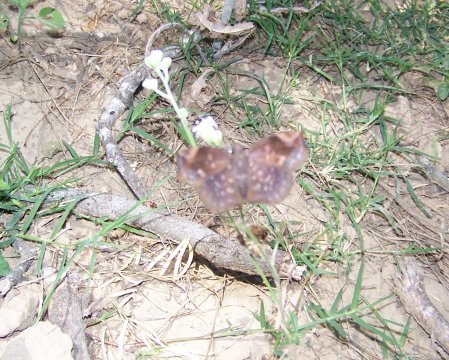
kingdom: Animalia
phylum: Arthropoda
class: Insecta
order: Lepidoptera
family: Hesperiidae
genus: Achlyodes
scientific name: Achlyodes thraso
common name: Southern Sicklewing
